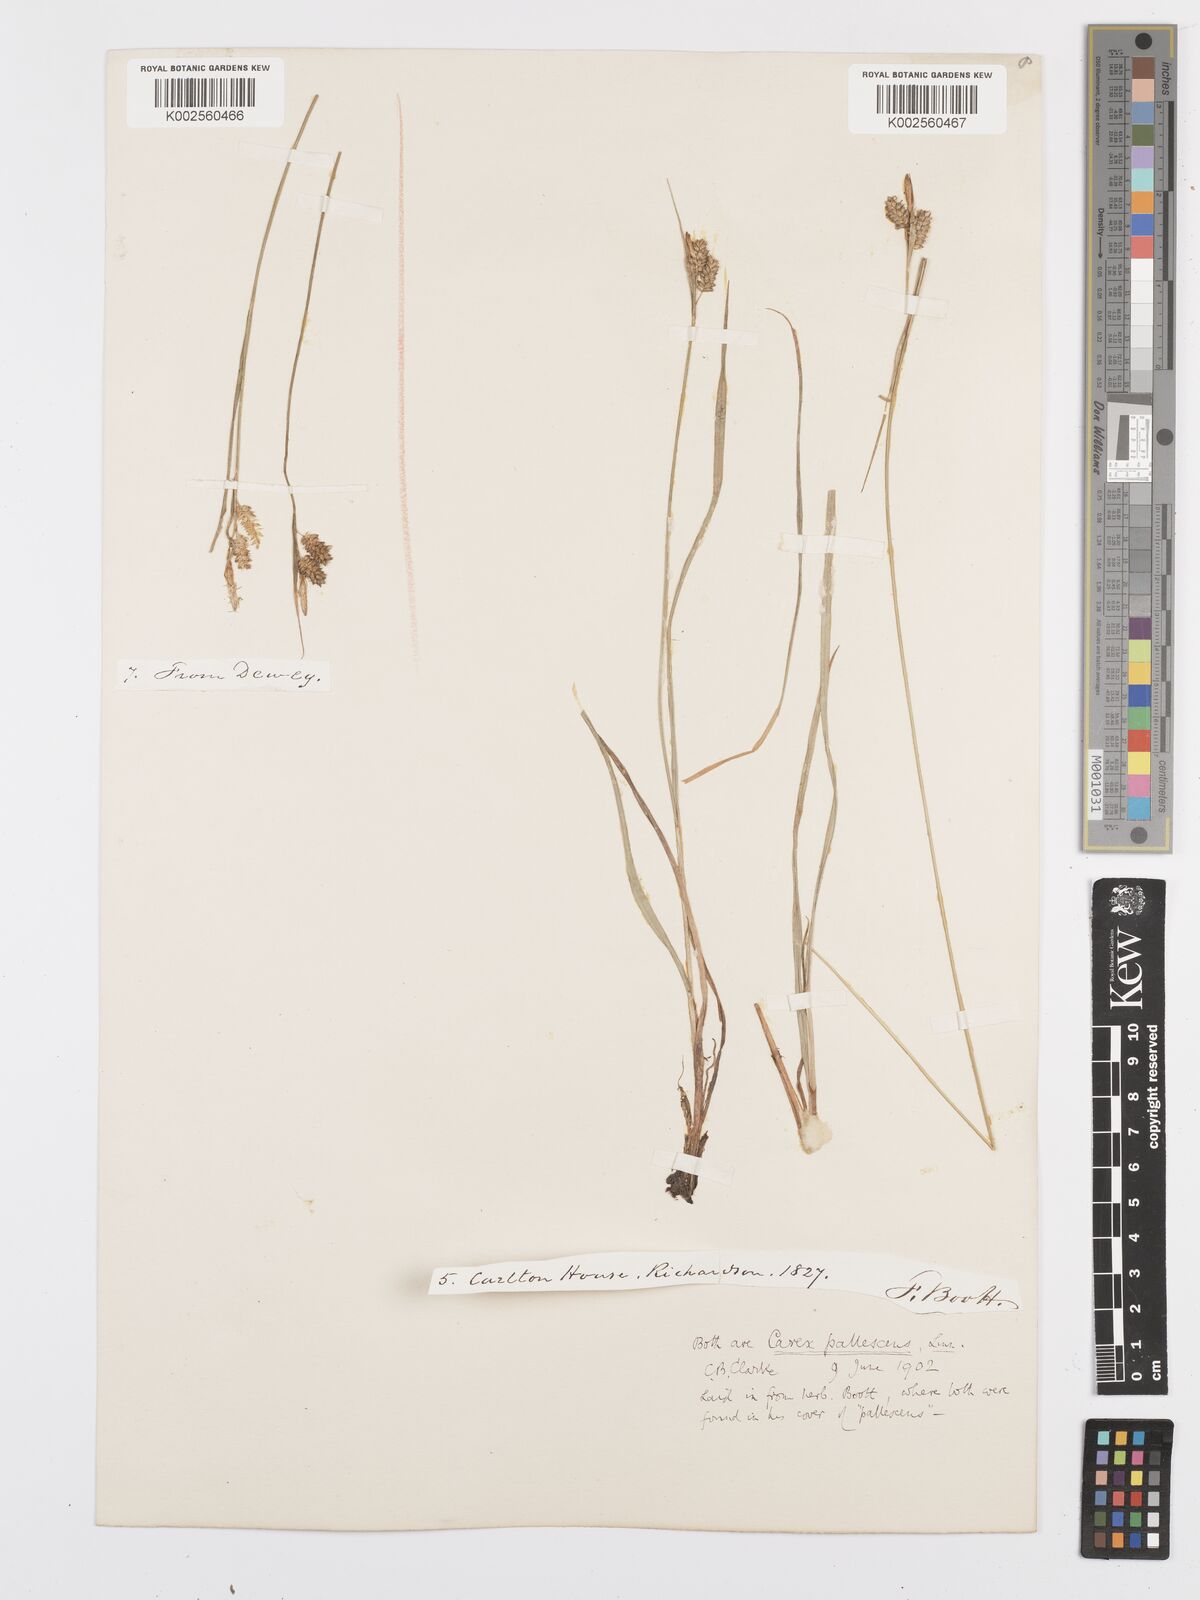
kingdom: Plantae
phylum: Tracheophyta
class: Liliopsida
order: Poales
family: Cyperaceae
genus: Carex
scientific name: Carex pallescens
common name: Pale sedge
